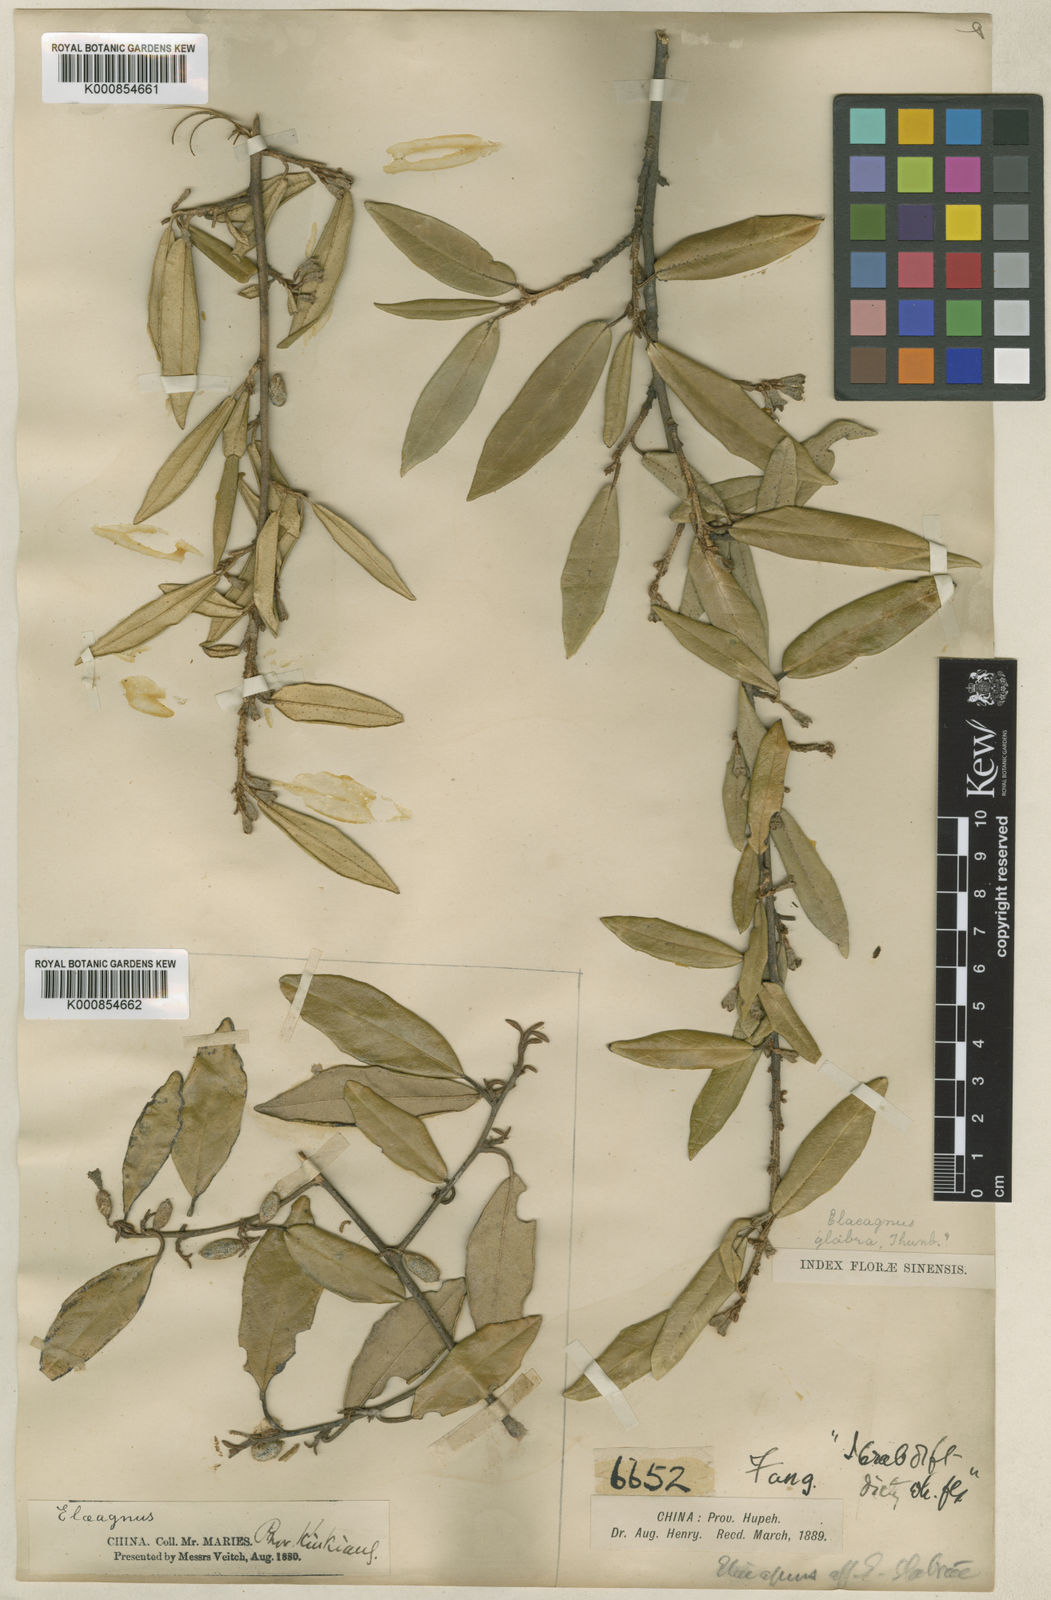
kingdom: Plantae
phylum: Tracheophyta
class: Magnoliopsida
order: Rosales
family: Elaeagnaceae
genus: Elaeagnus
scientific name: Elaeagnus lanceolata
